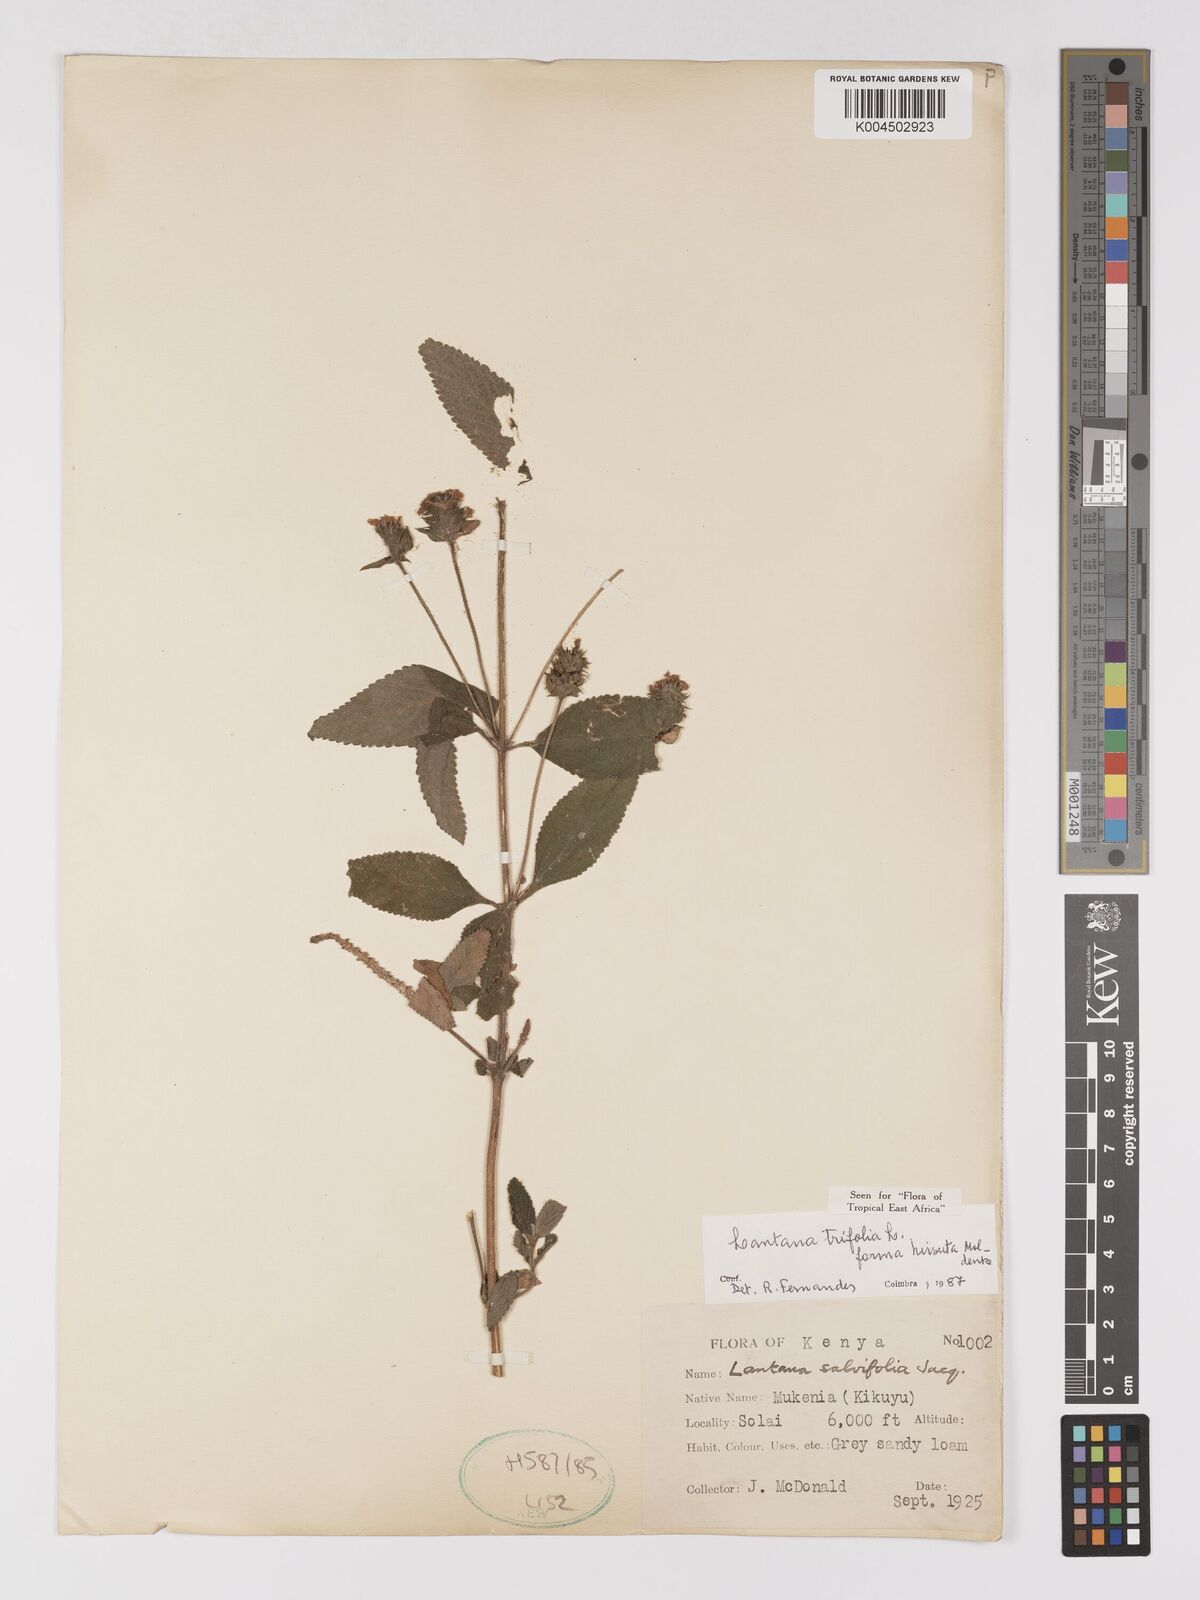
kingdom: Plantae
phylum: Tracheophyta
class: Magnoliopsida
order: Lamiales
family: Verbenaceae
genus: Lantana
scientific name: Lantana trifolia
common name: Sweet-sage
